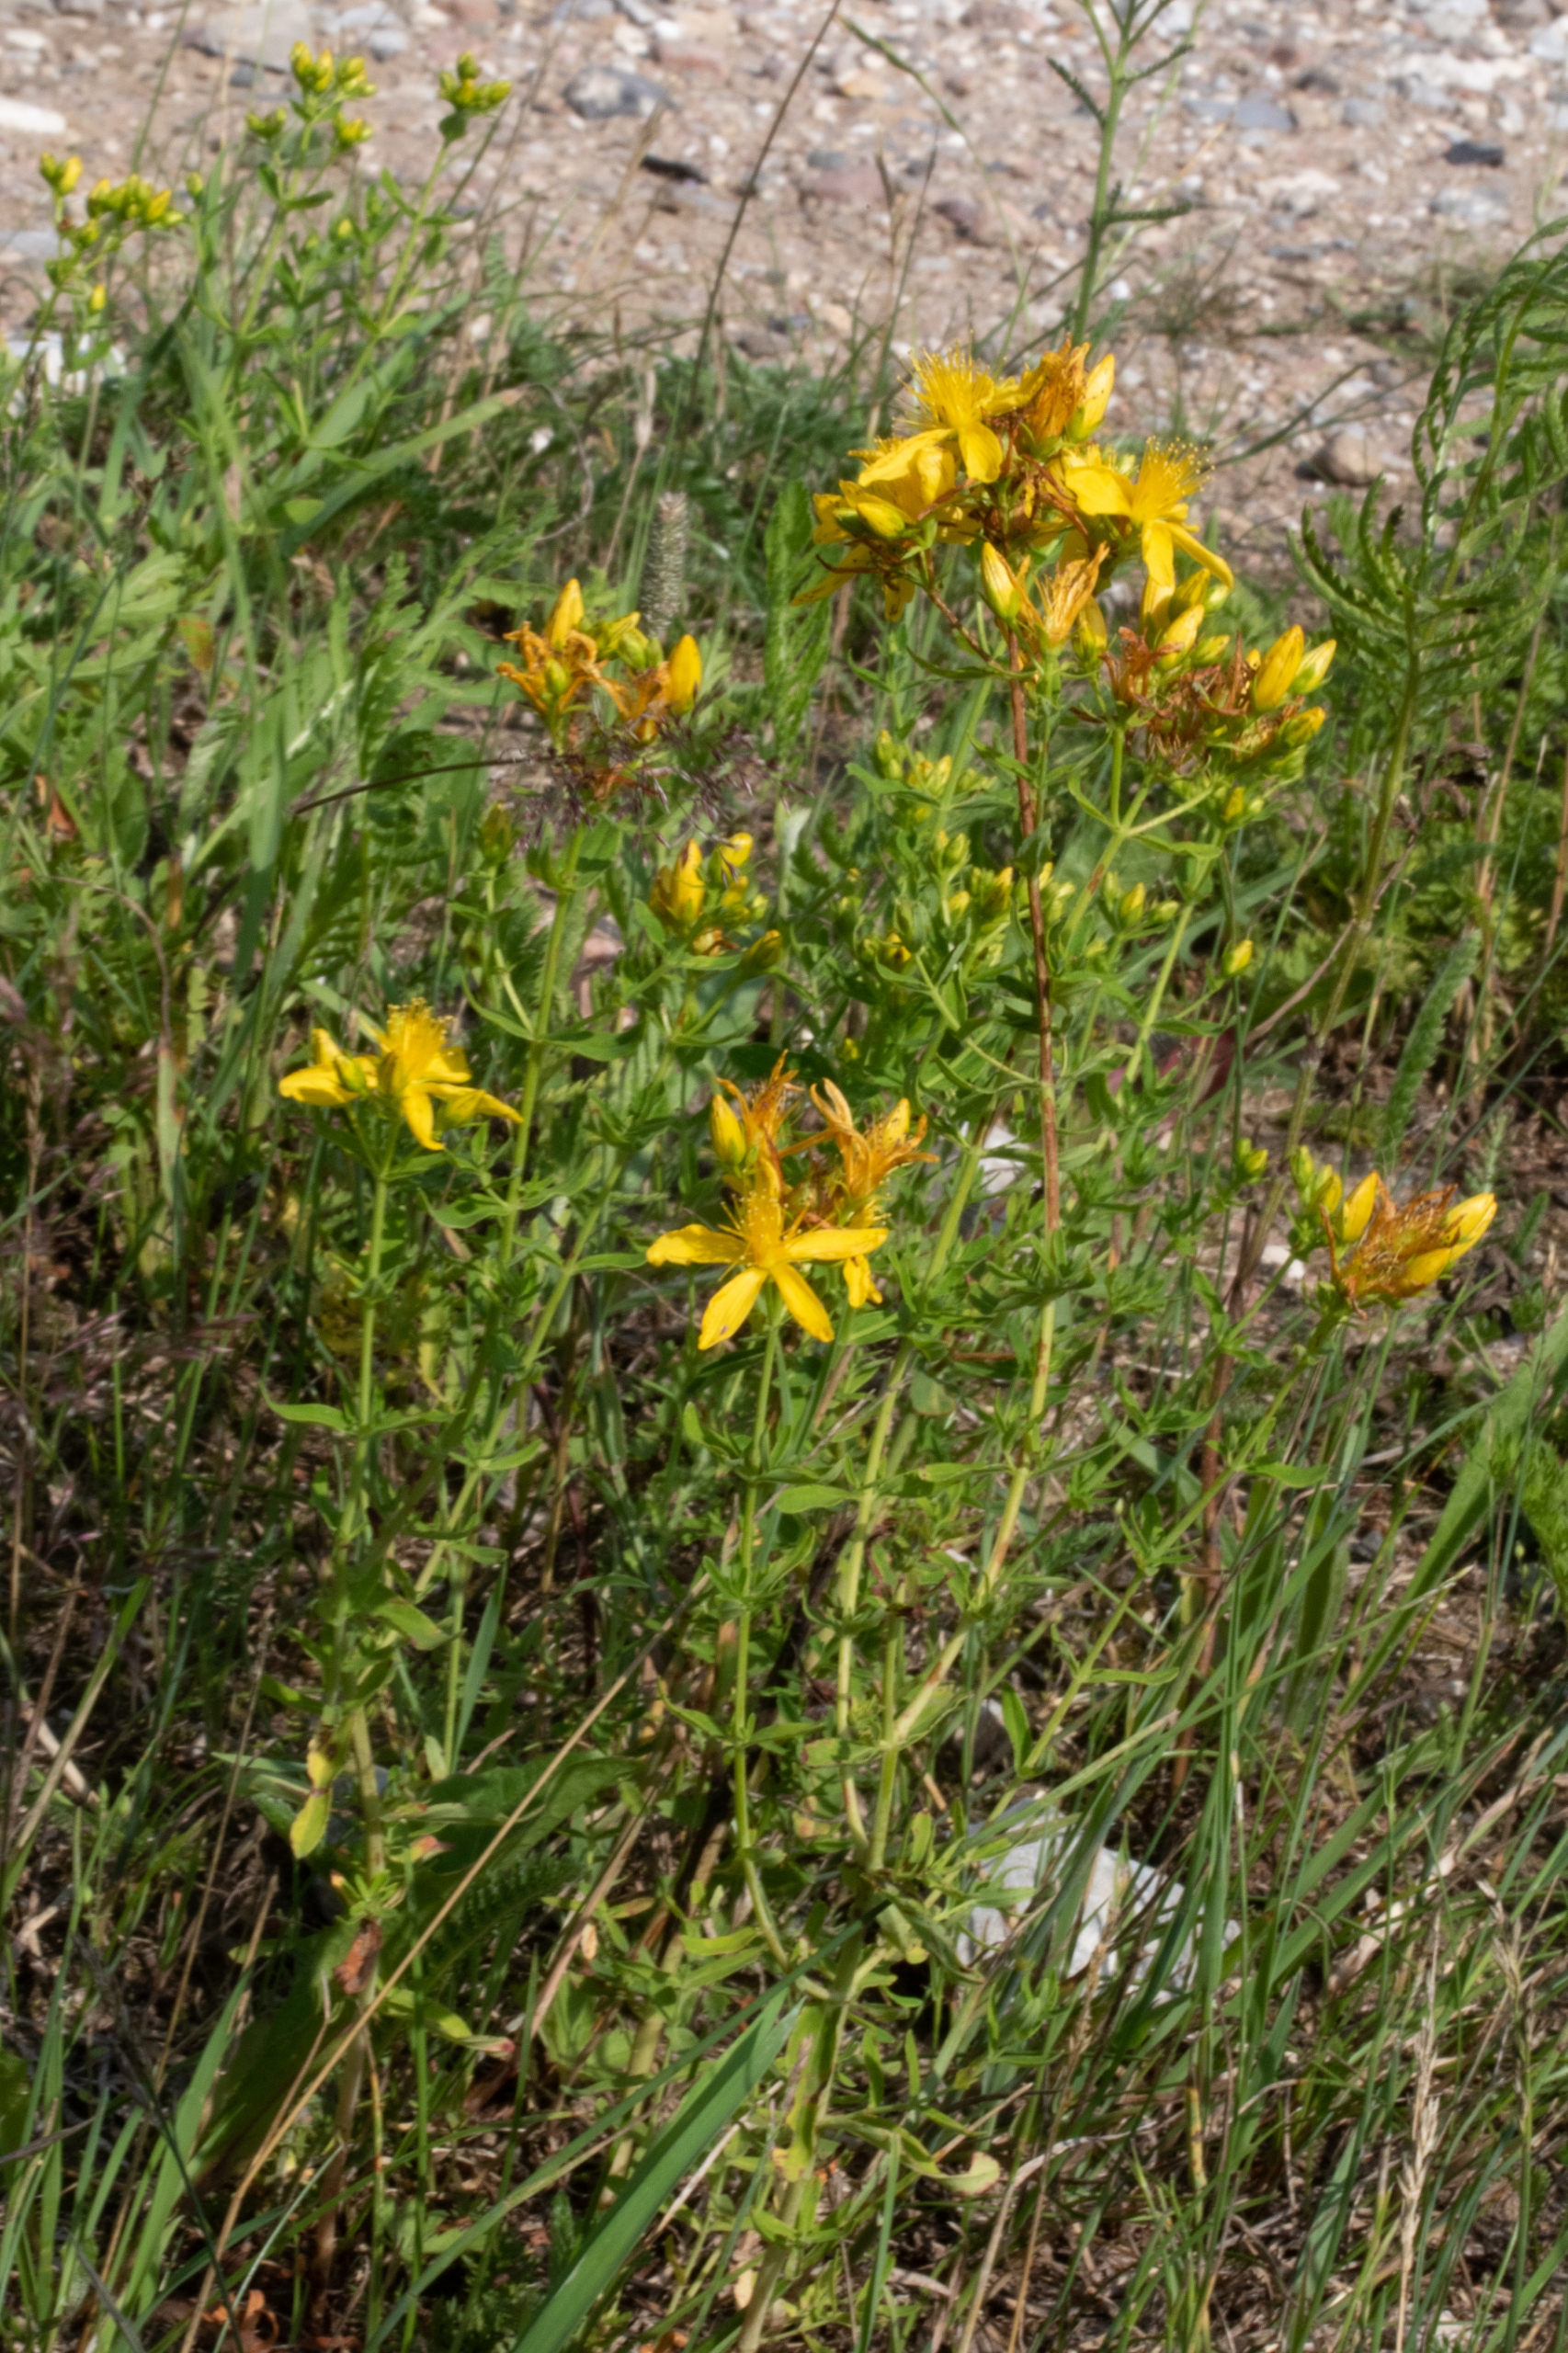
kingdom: Plantae
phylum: Tracheophyta
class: Magnoliopsida
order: Malpighiales
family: Hypericaceae
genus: Hypericum
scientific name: Hypericum perforatum
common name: Prikbladet perikon
